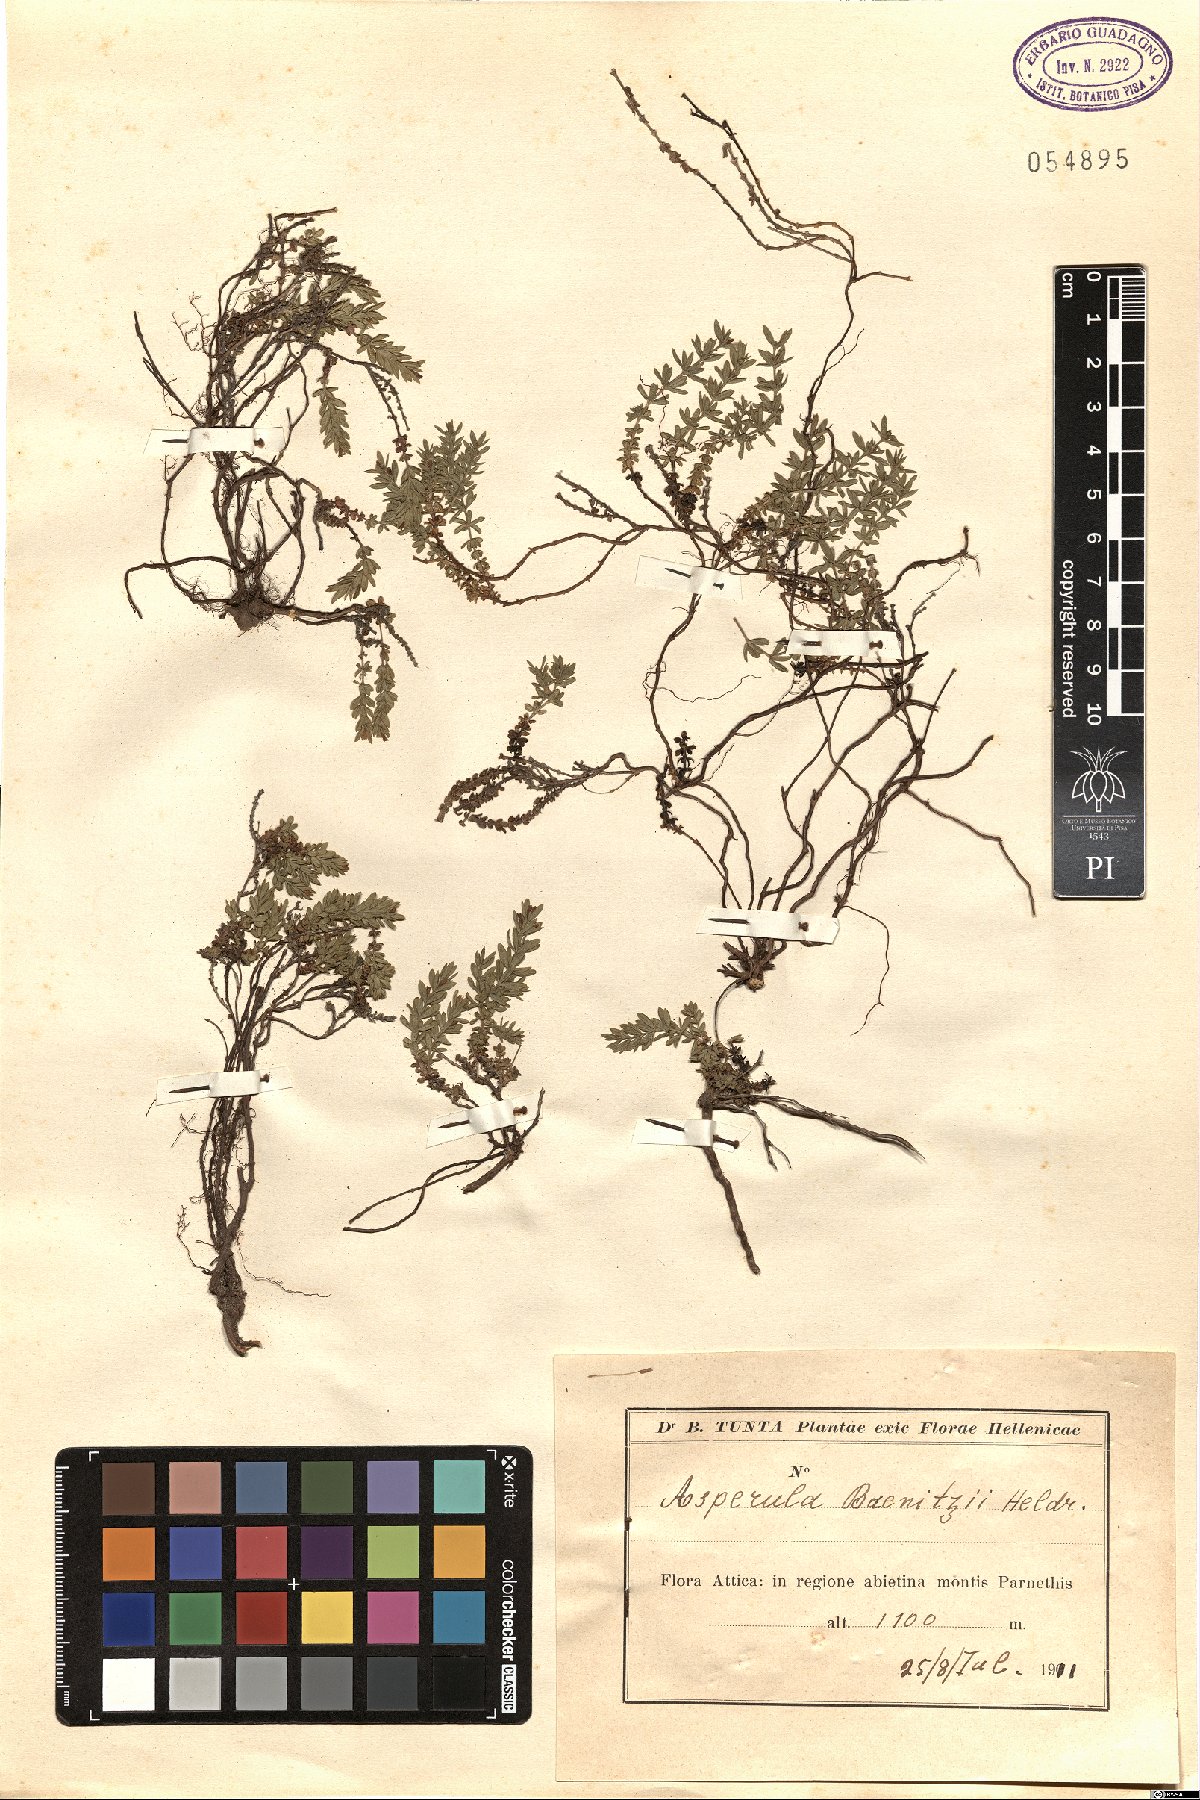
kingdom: Plantae
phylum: Tracheophyta
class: Magnoliopsida
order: Gentianales
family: Rubiaceae
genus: Thliphthisa
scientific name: Thliphthisa baenitzii
